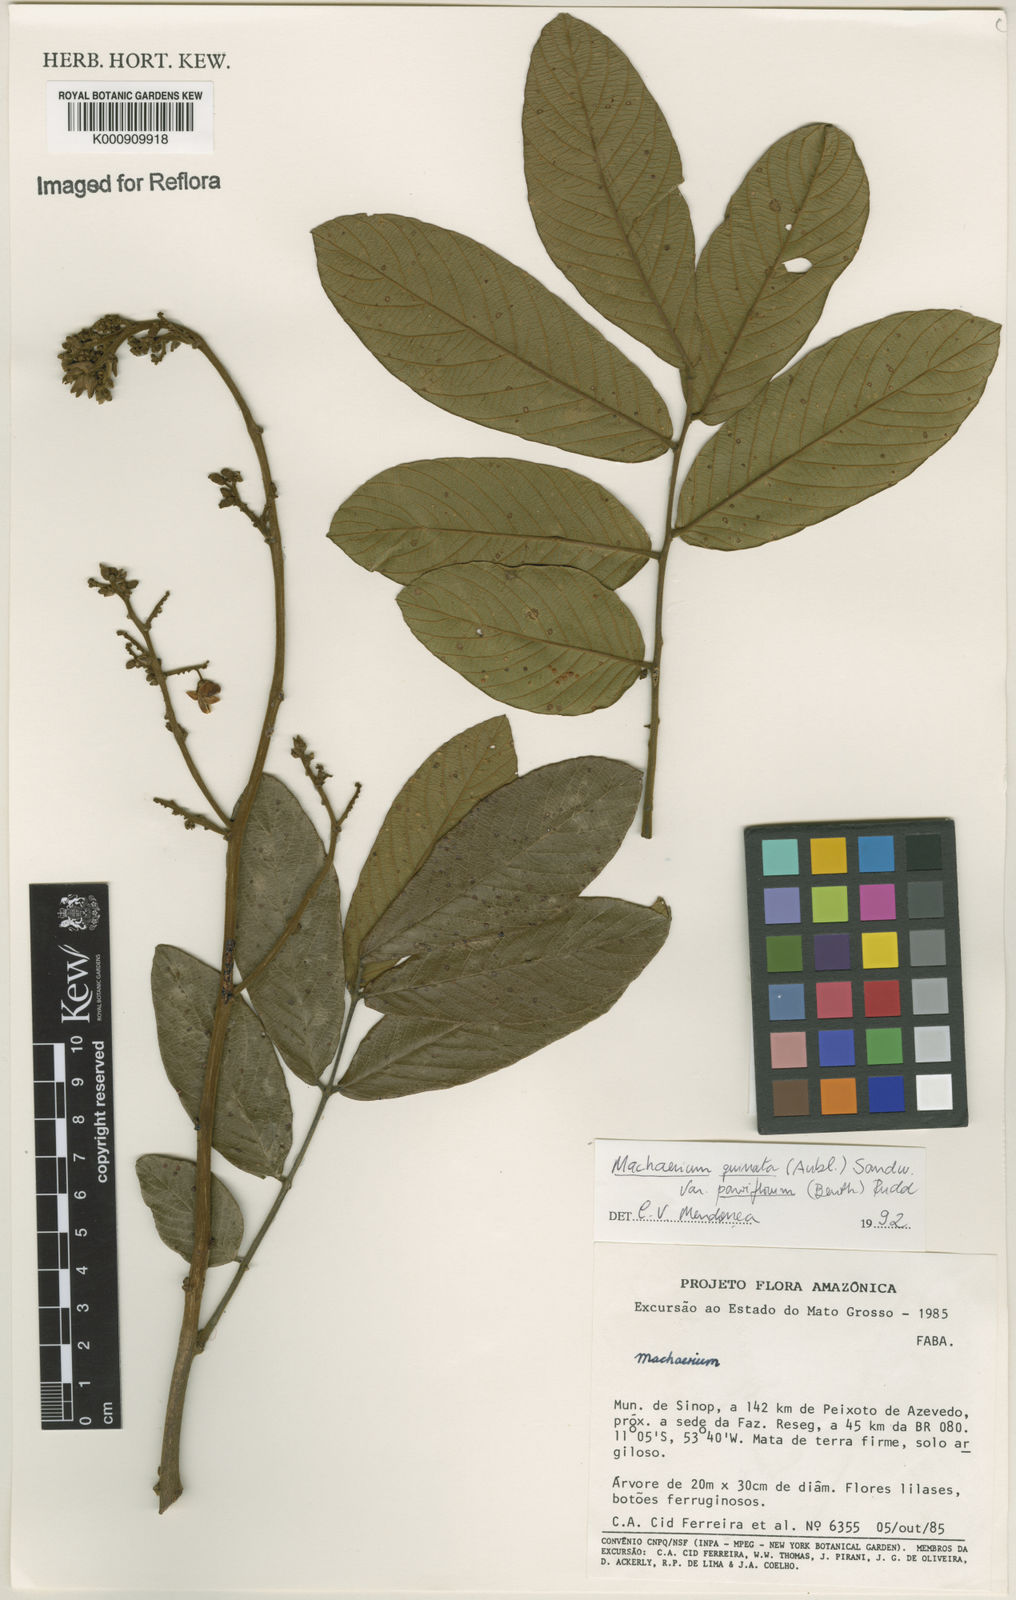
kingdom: Plantae
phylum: Tracheophyta
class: Magnoliopsida
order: Fabales
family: Fabaceae
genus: Machaerium
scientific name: Machaerium quinata
